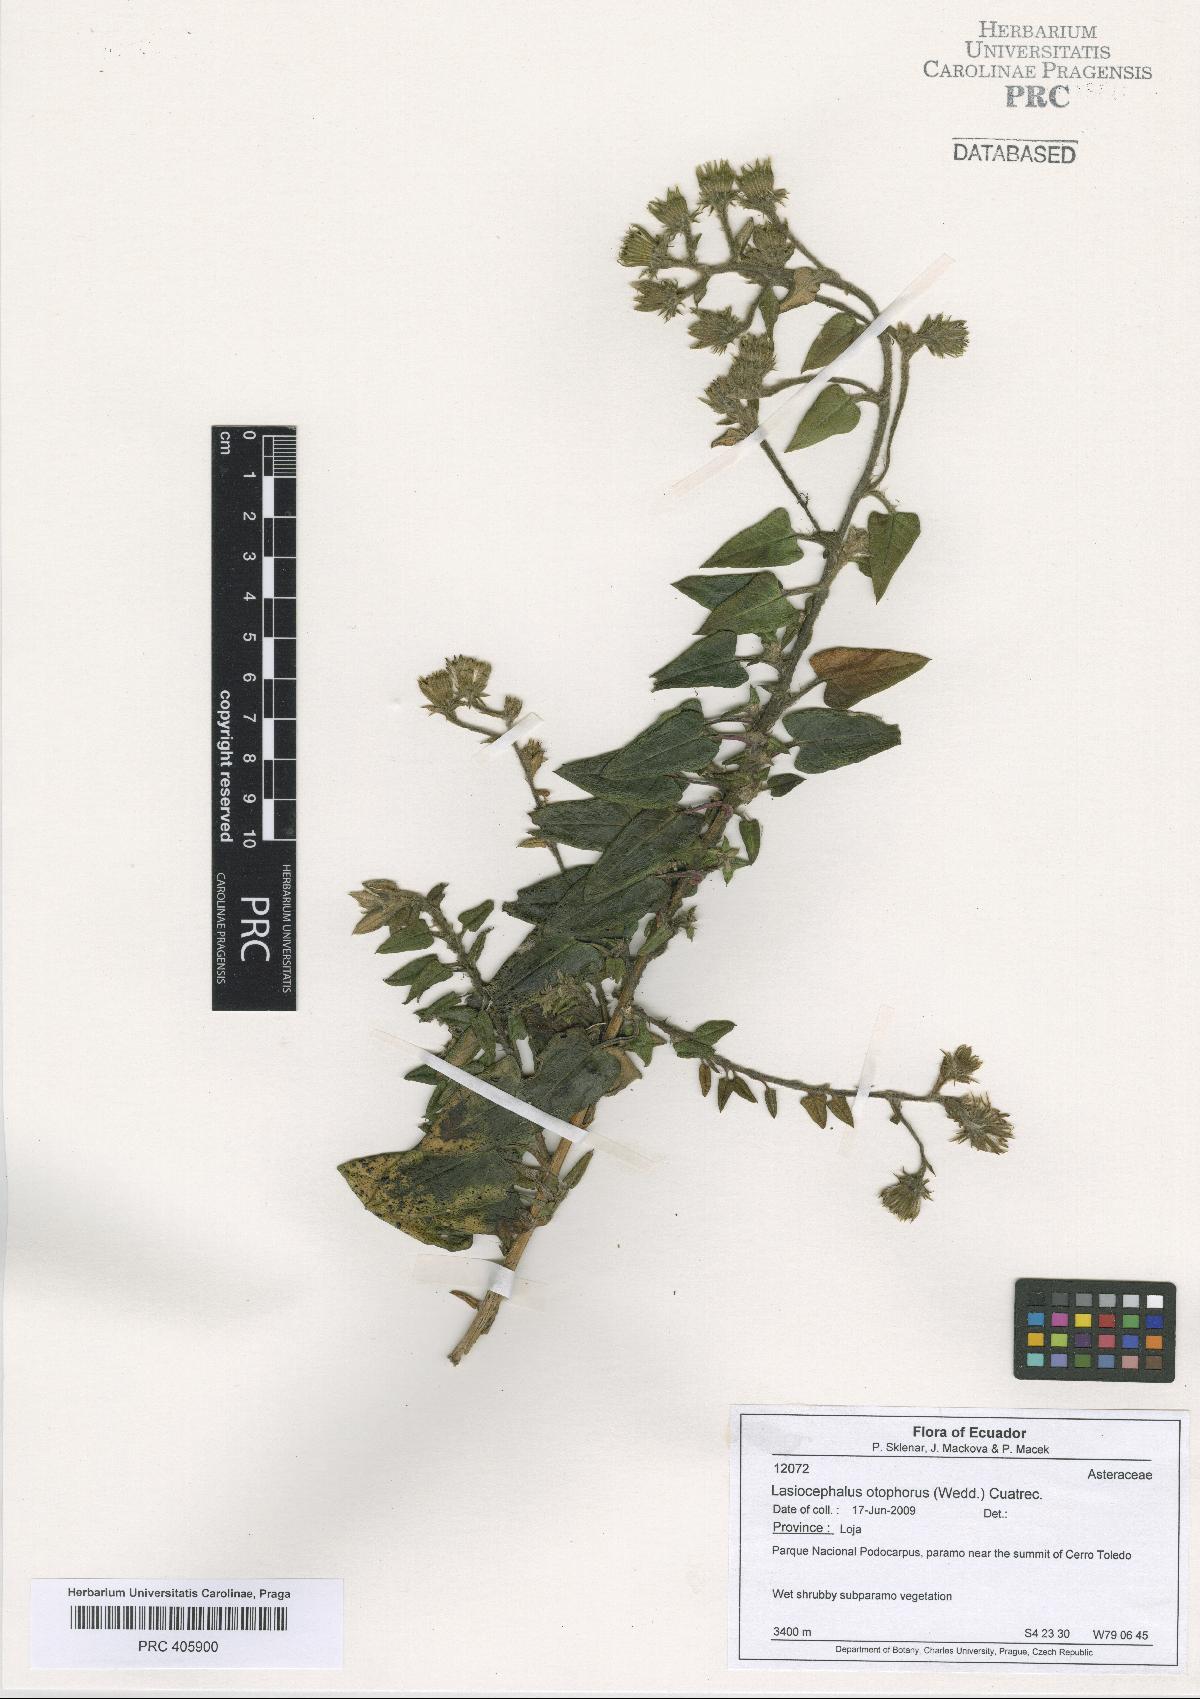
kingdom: Plantae
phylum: Tracheophyta
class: Magnoliopsida
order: Asterales
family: Asteraceae
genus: Aetheolaena
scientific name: Aetheolaena otophora
